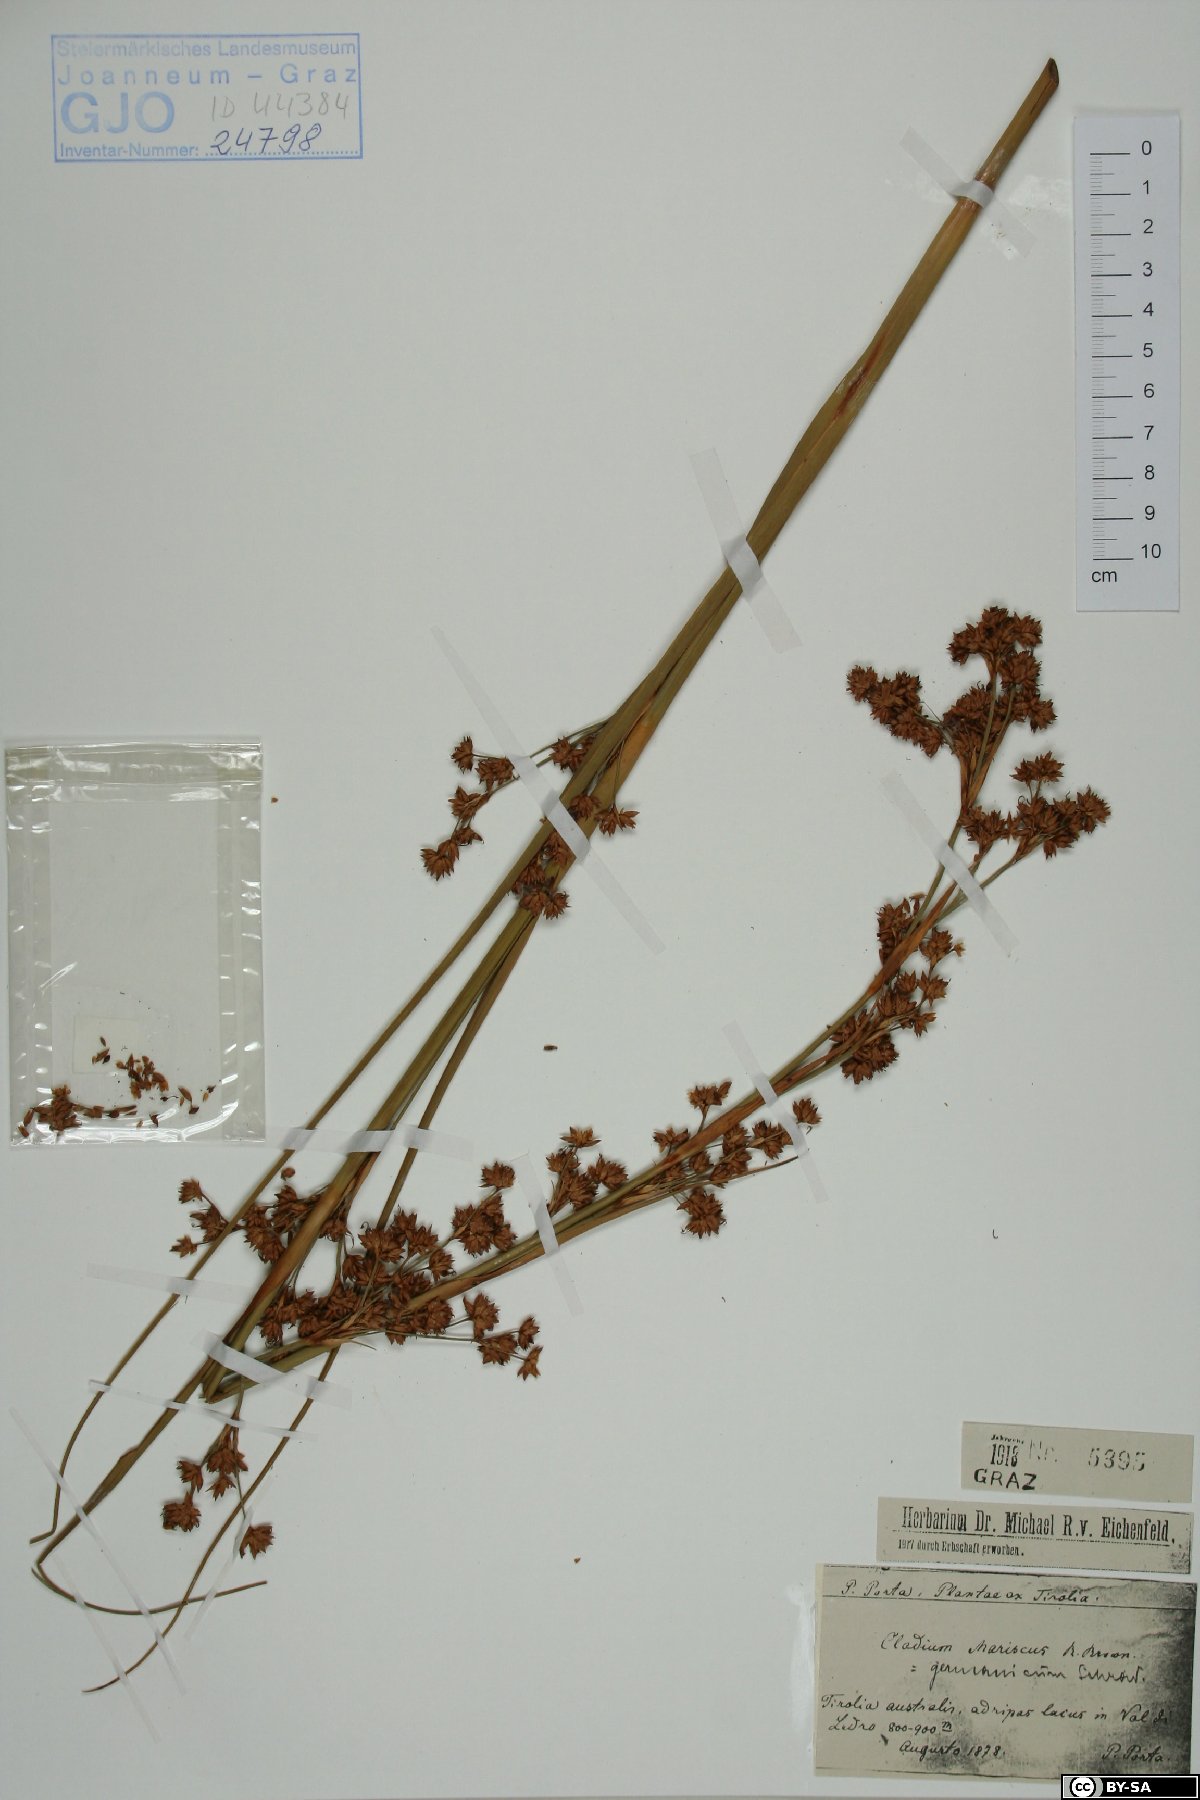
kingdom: Plantae
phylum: Tracheophyta
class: Liliopsida
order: Poales
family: Cyperaceae
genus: Cladium
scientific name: Cladium mariscus
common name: Great fen-sedge
